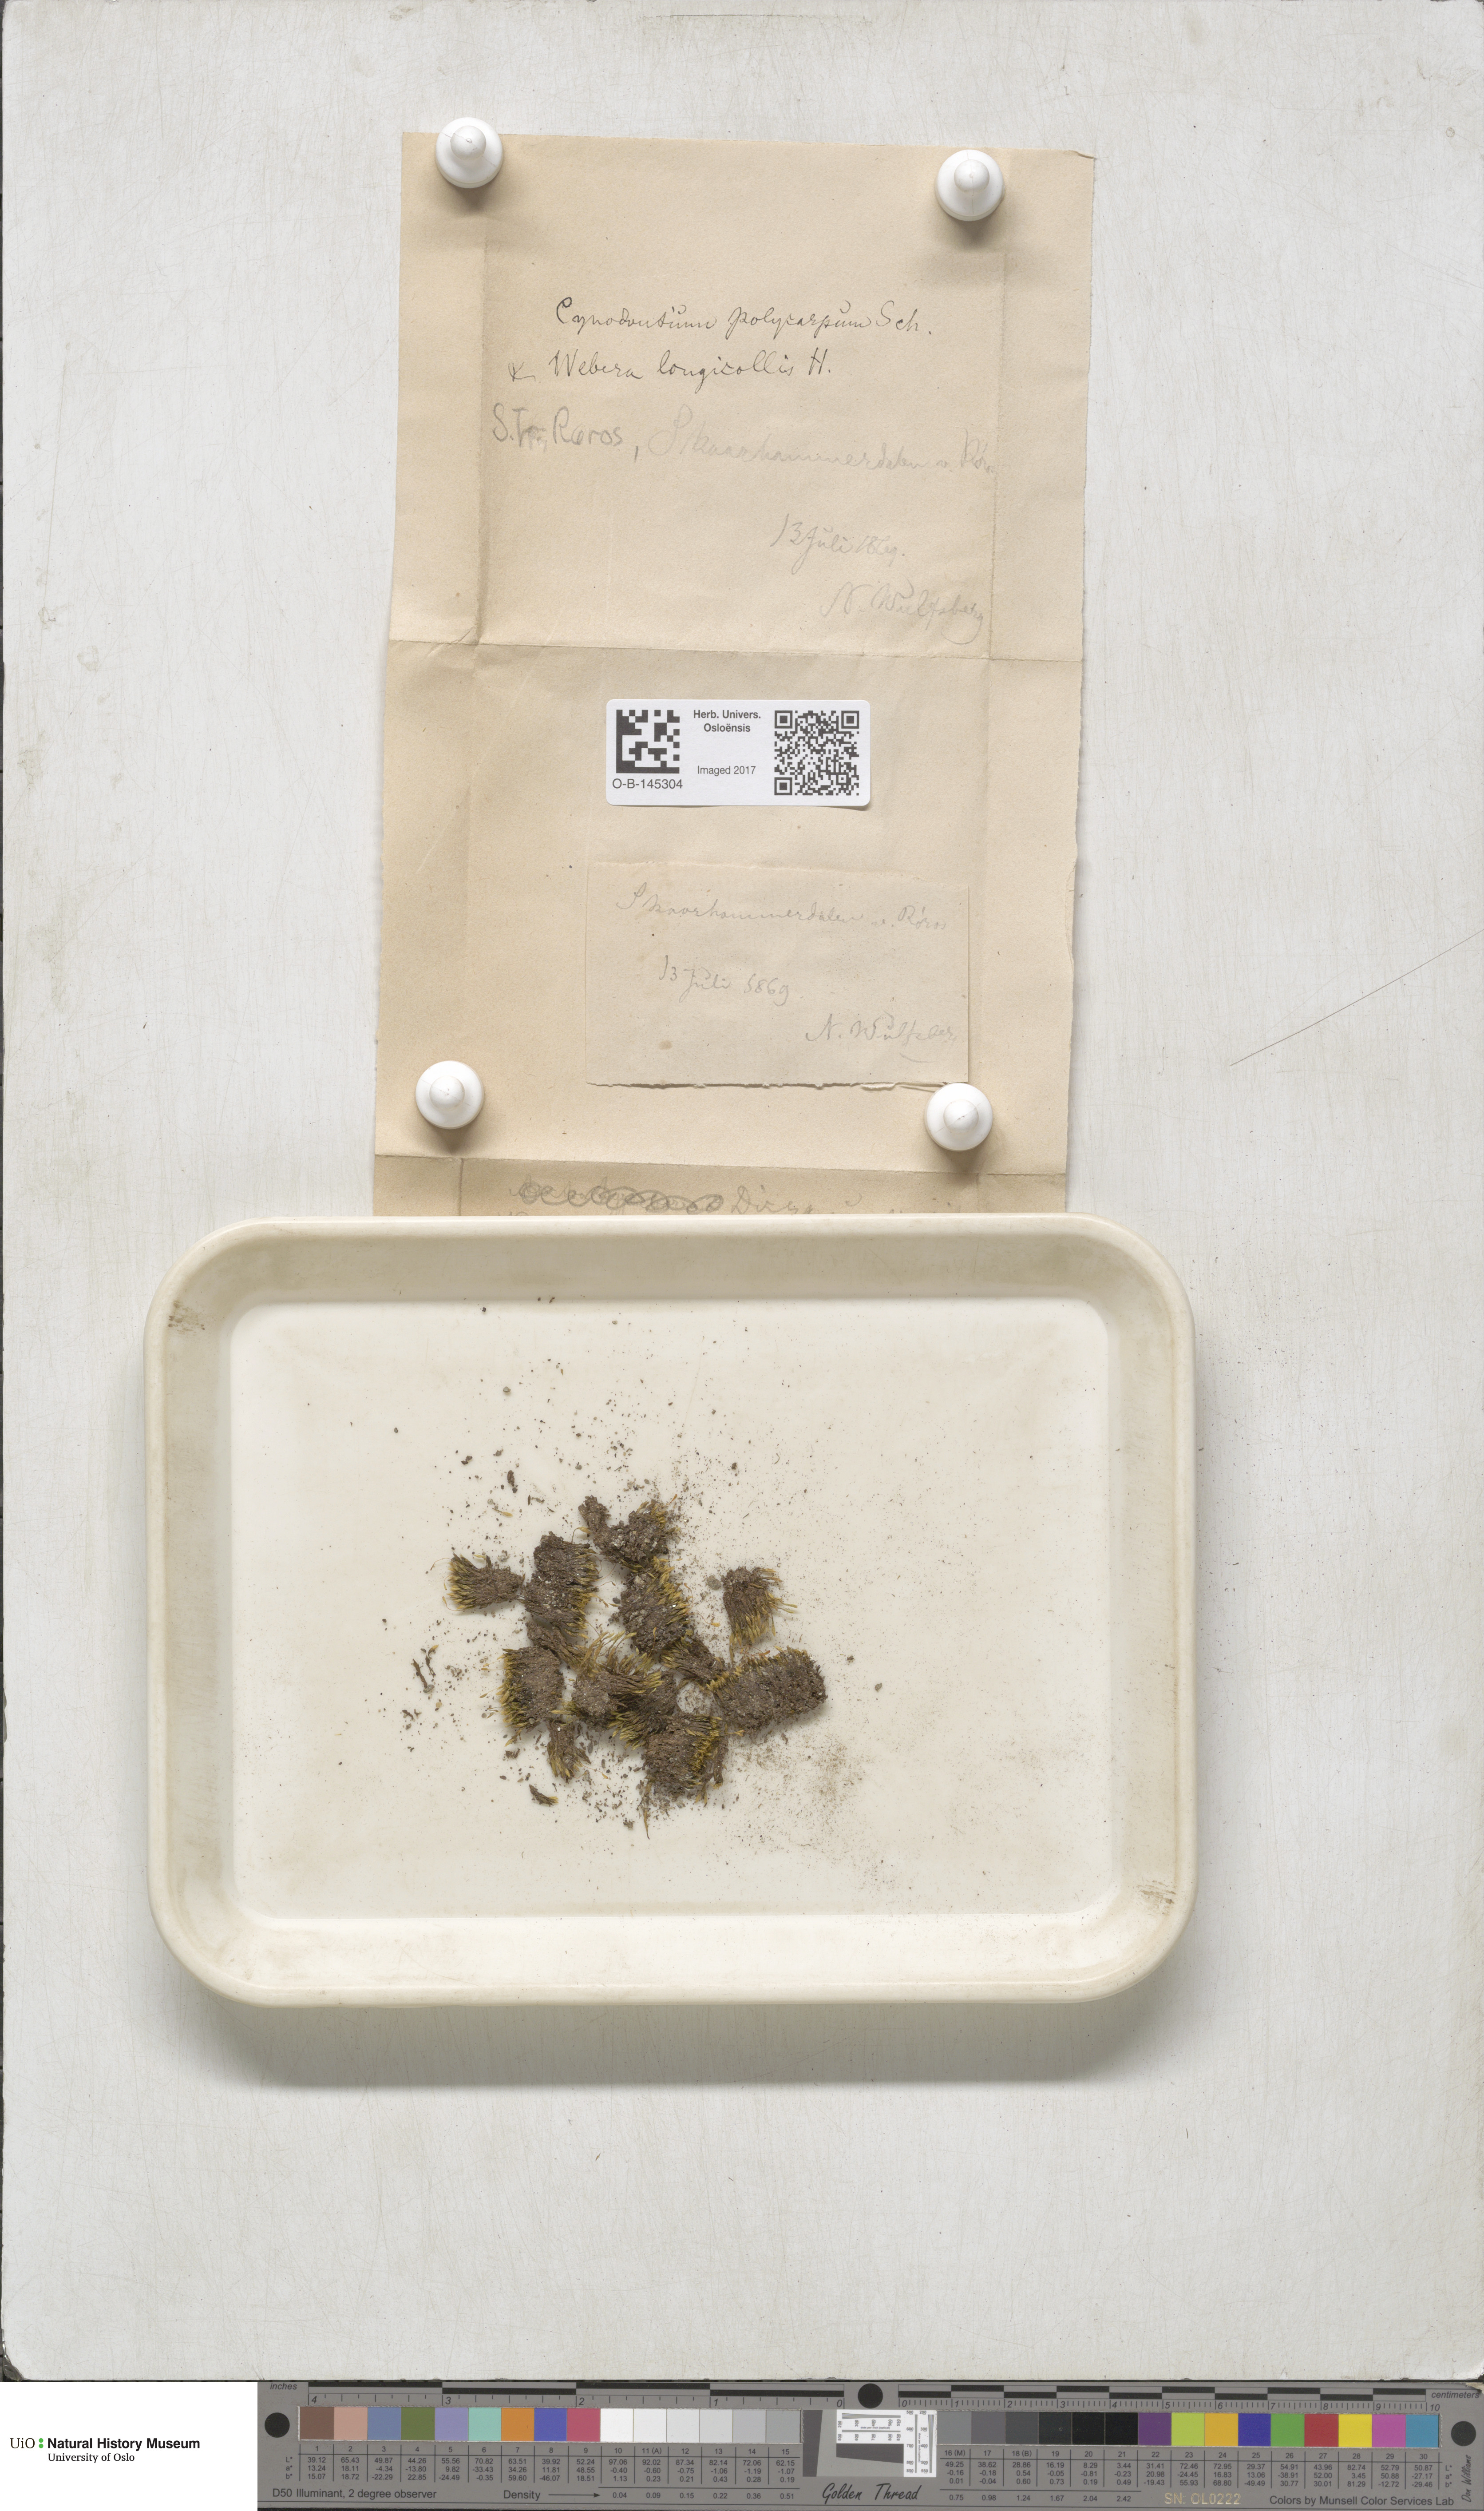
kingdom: Plantae
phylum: Bryophyta
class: Bryopsida
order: Bryales
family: Mniaceae
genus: Pohlia
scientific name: Pohlia longicolla
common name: Long-necked nodding moss
